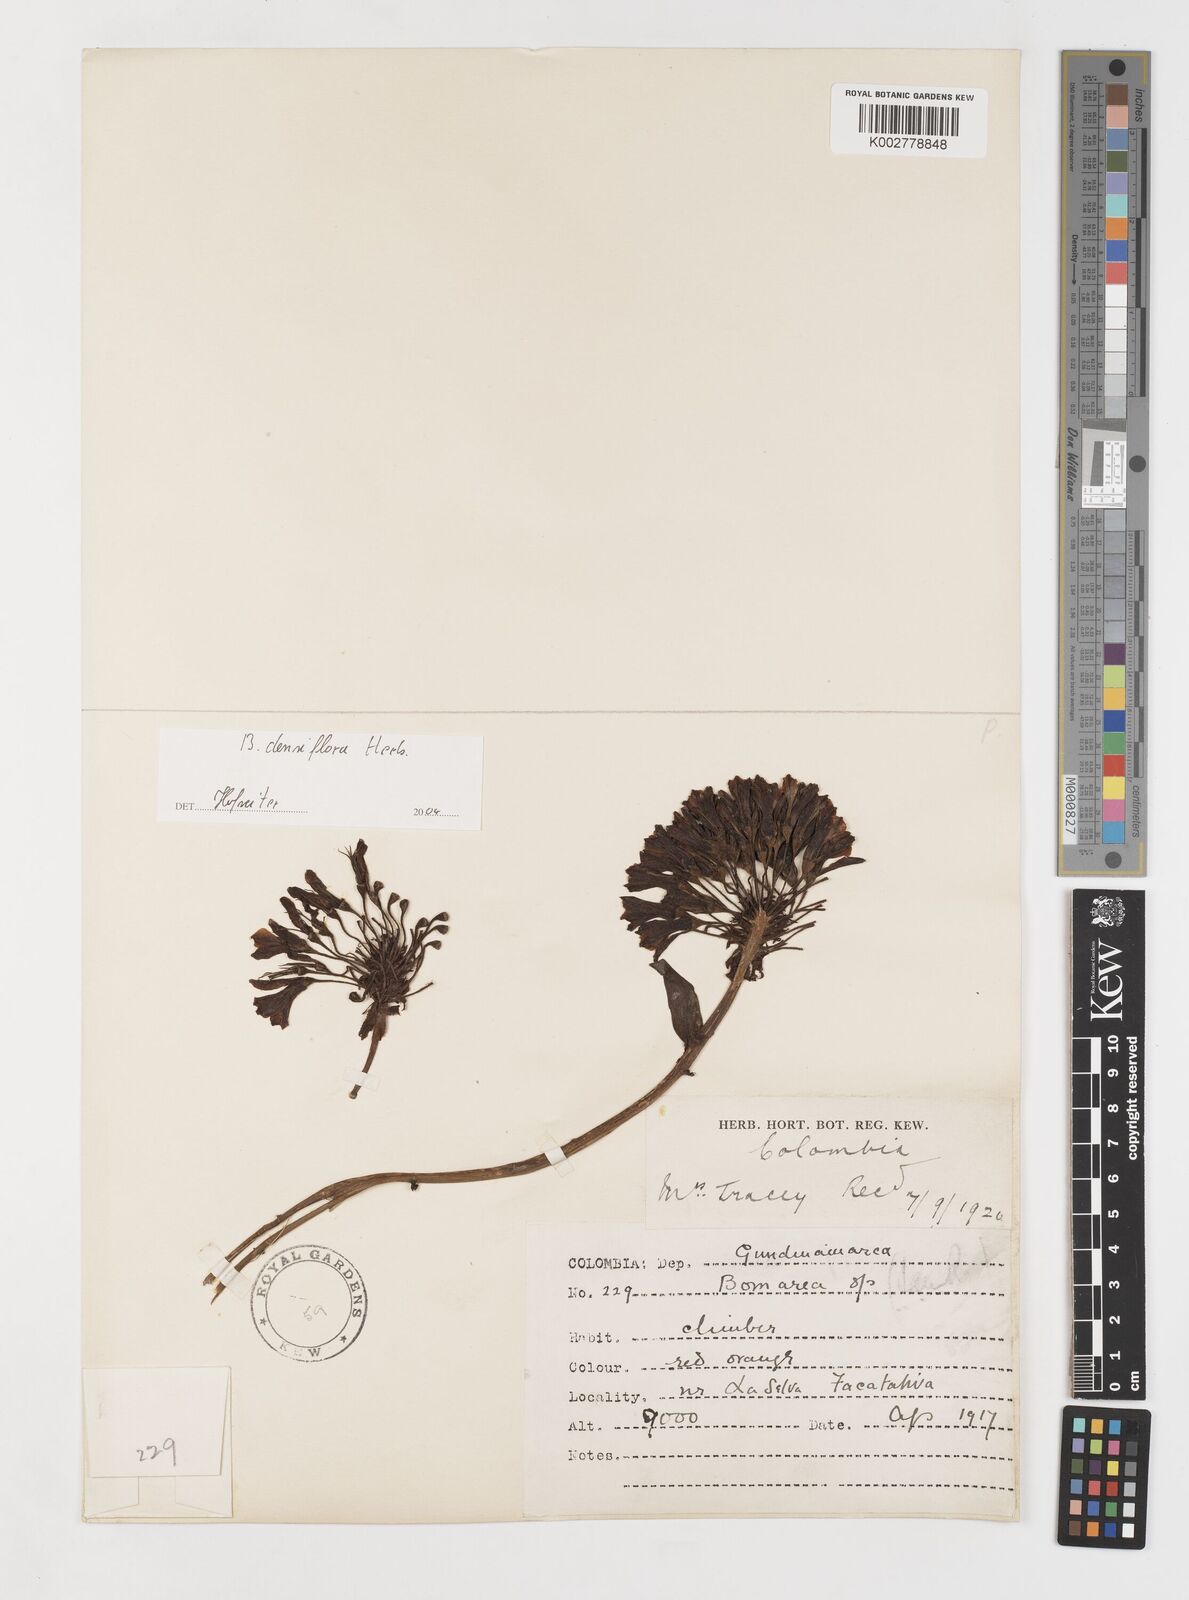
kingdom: Plantae
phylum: Tracheophyta
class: Liliopsida
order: Liliales
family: Alstroemeriaceae
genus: Bomarea
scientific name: Bomarea densiflora
